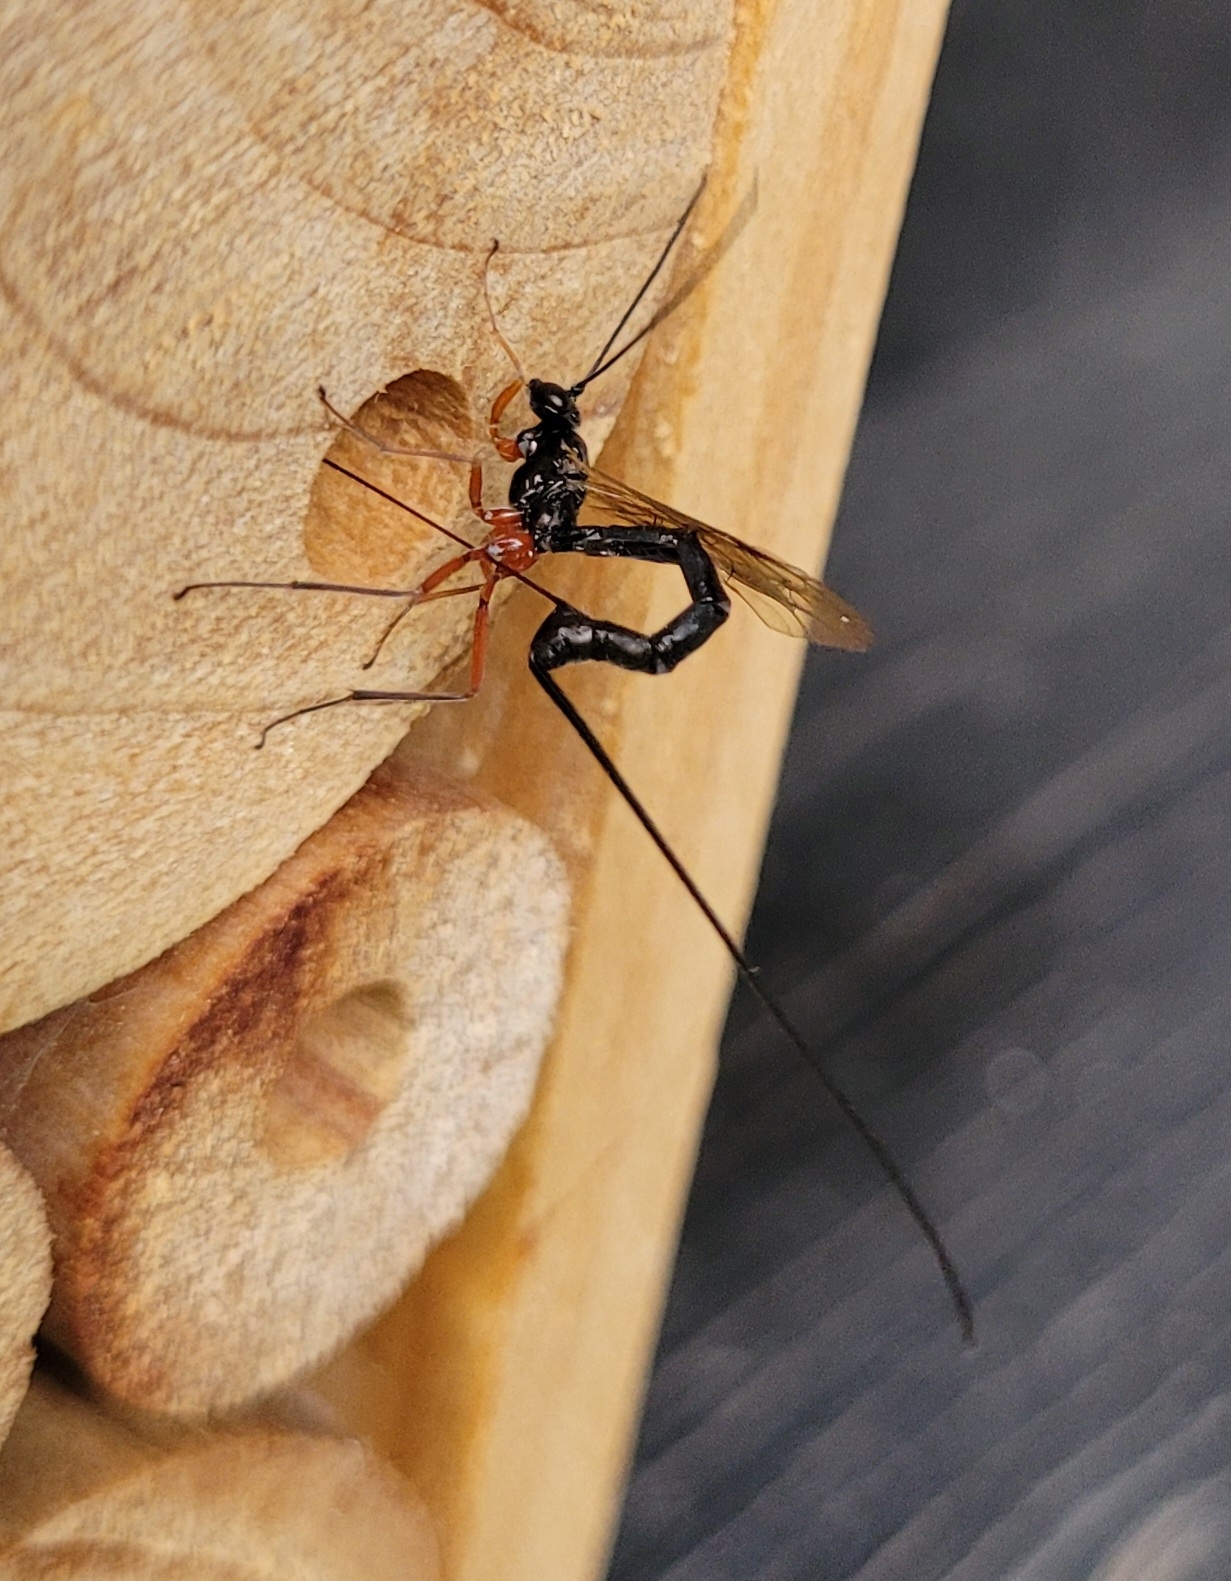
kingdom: Animalia
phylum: Arthropoda
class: Insecta
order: Hymenoptera
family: Ichneumonidae
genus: Ephialtes
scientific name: Ephialtes
